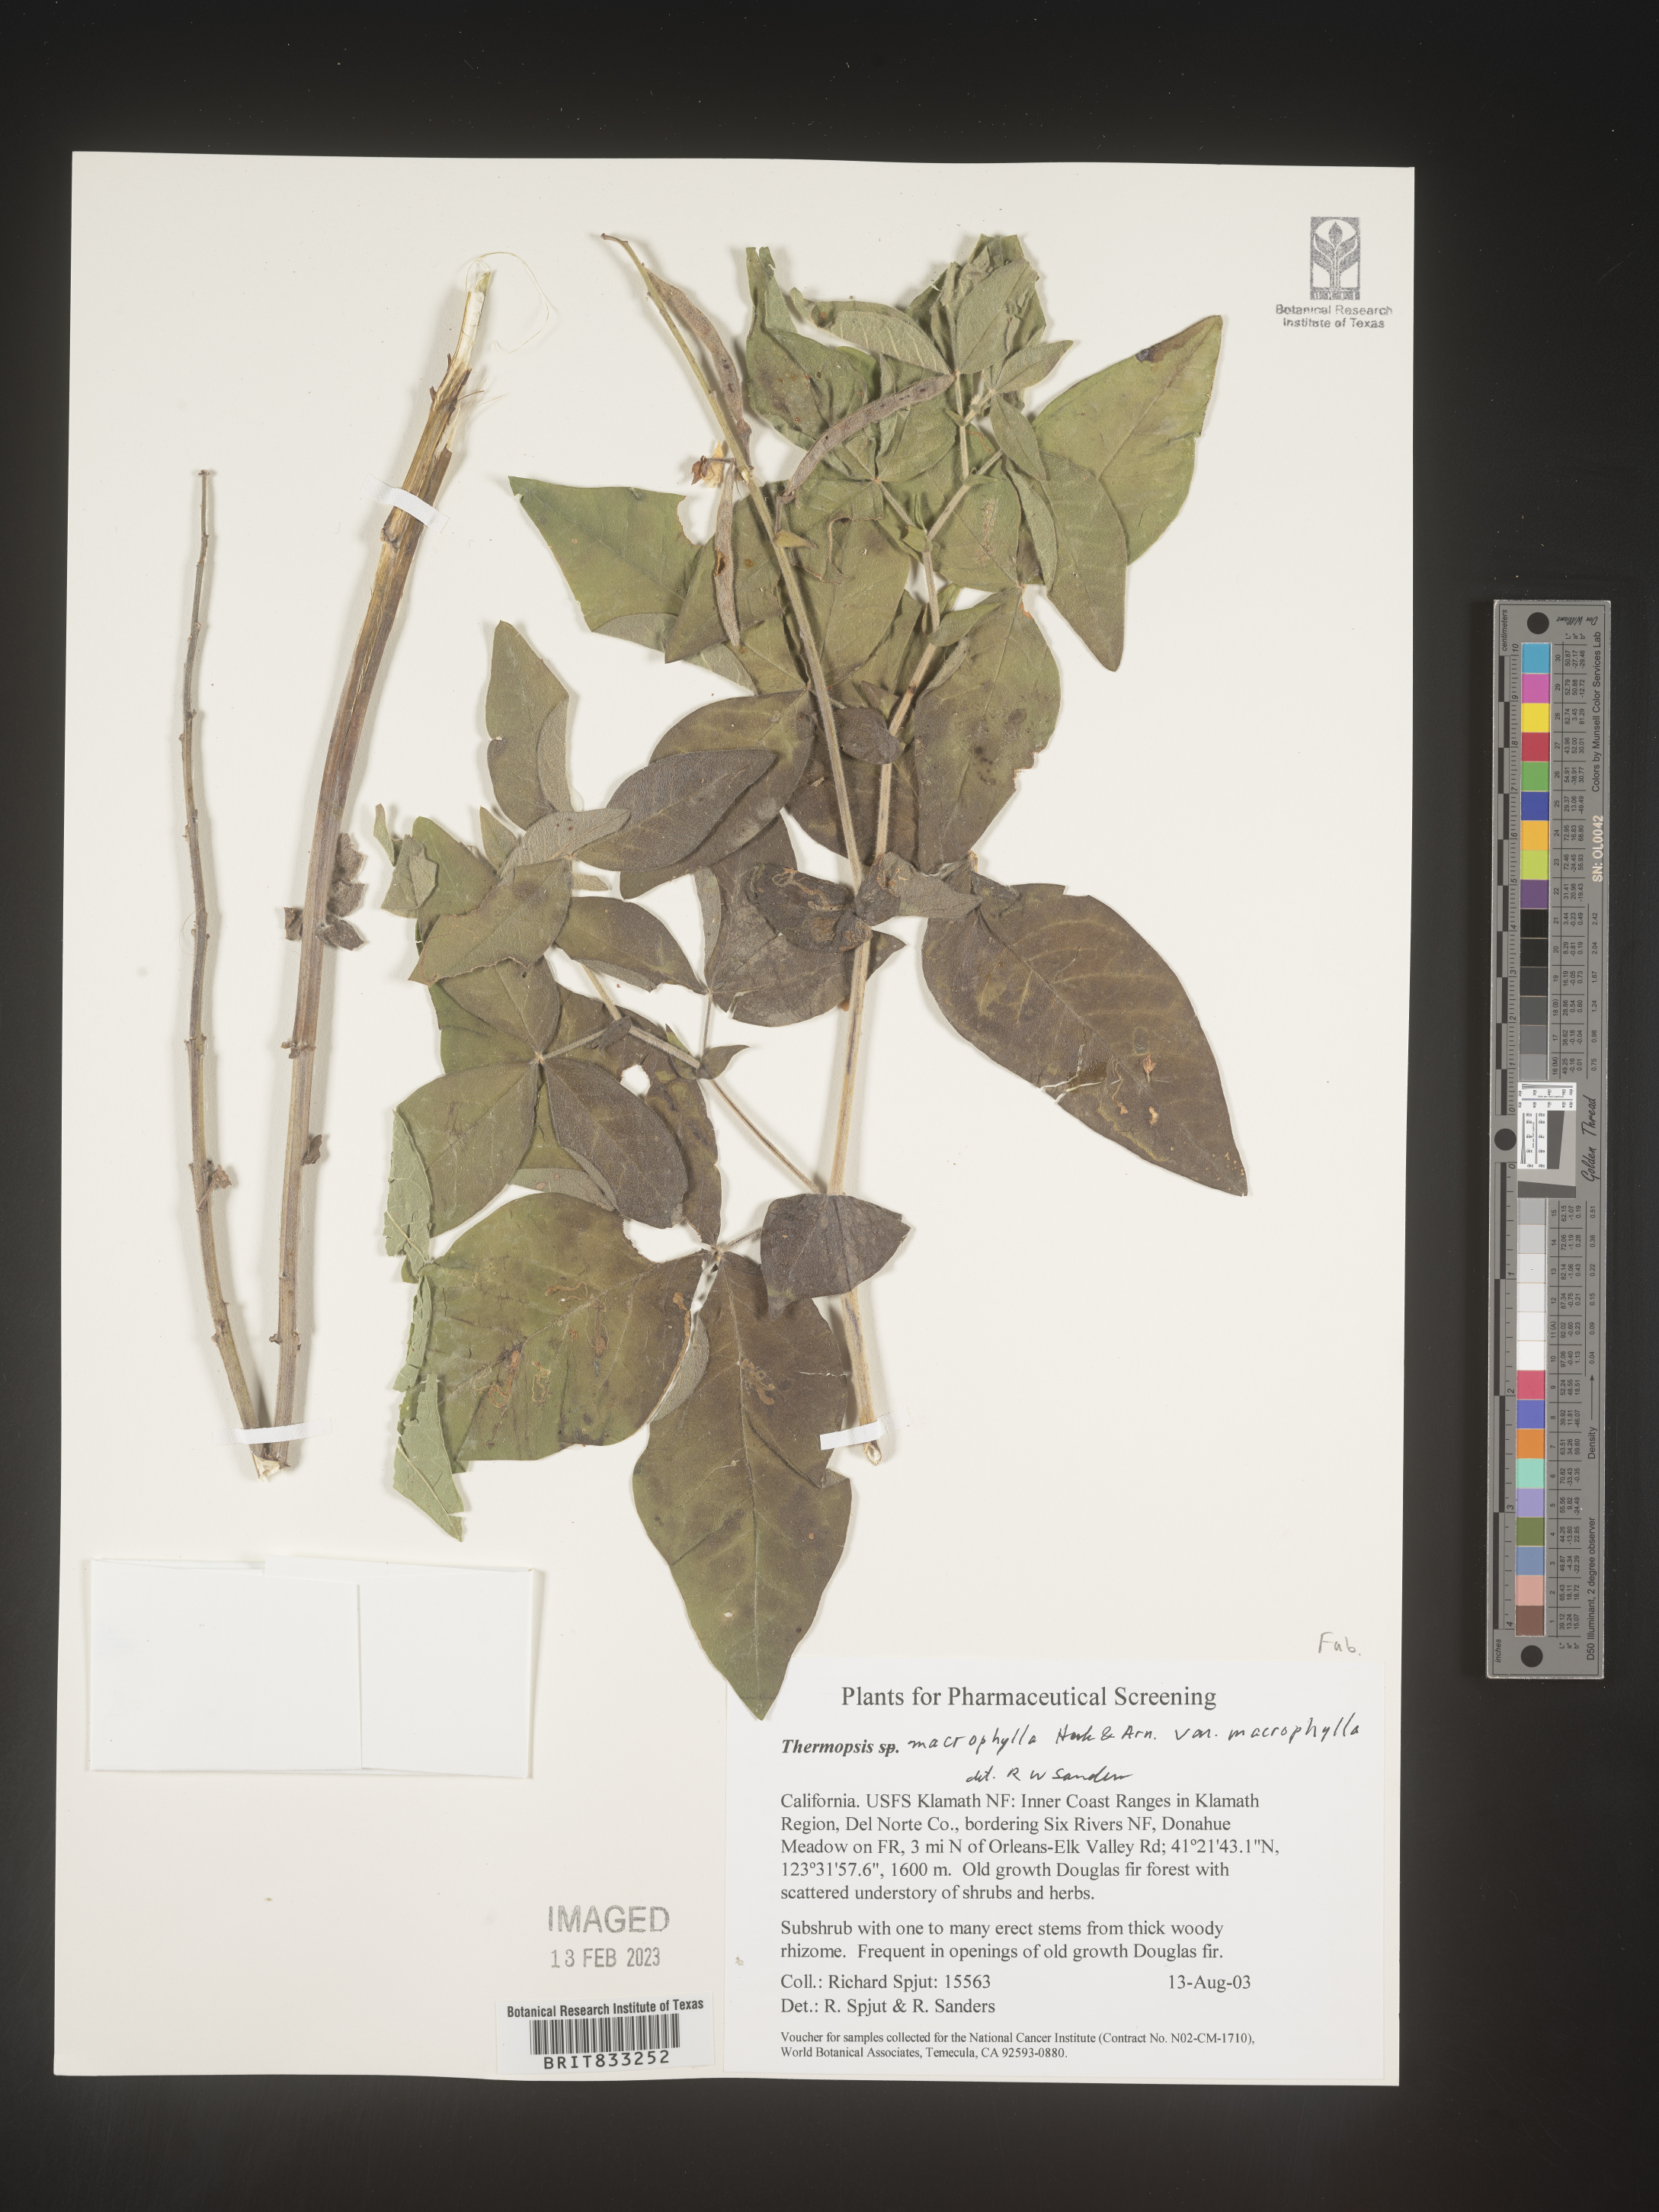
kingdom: Plantae
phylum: Tracheophyta
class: Magnoliopsida
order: Fabales
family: Fabaceae
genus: Thermopsis
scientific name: Thermopsis macrophylla
